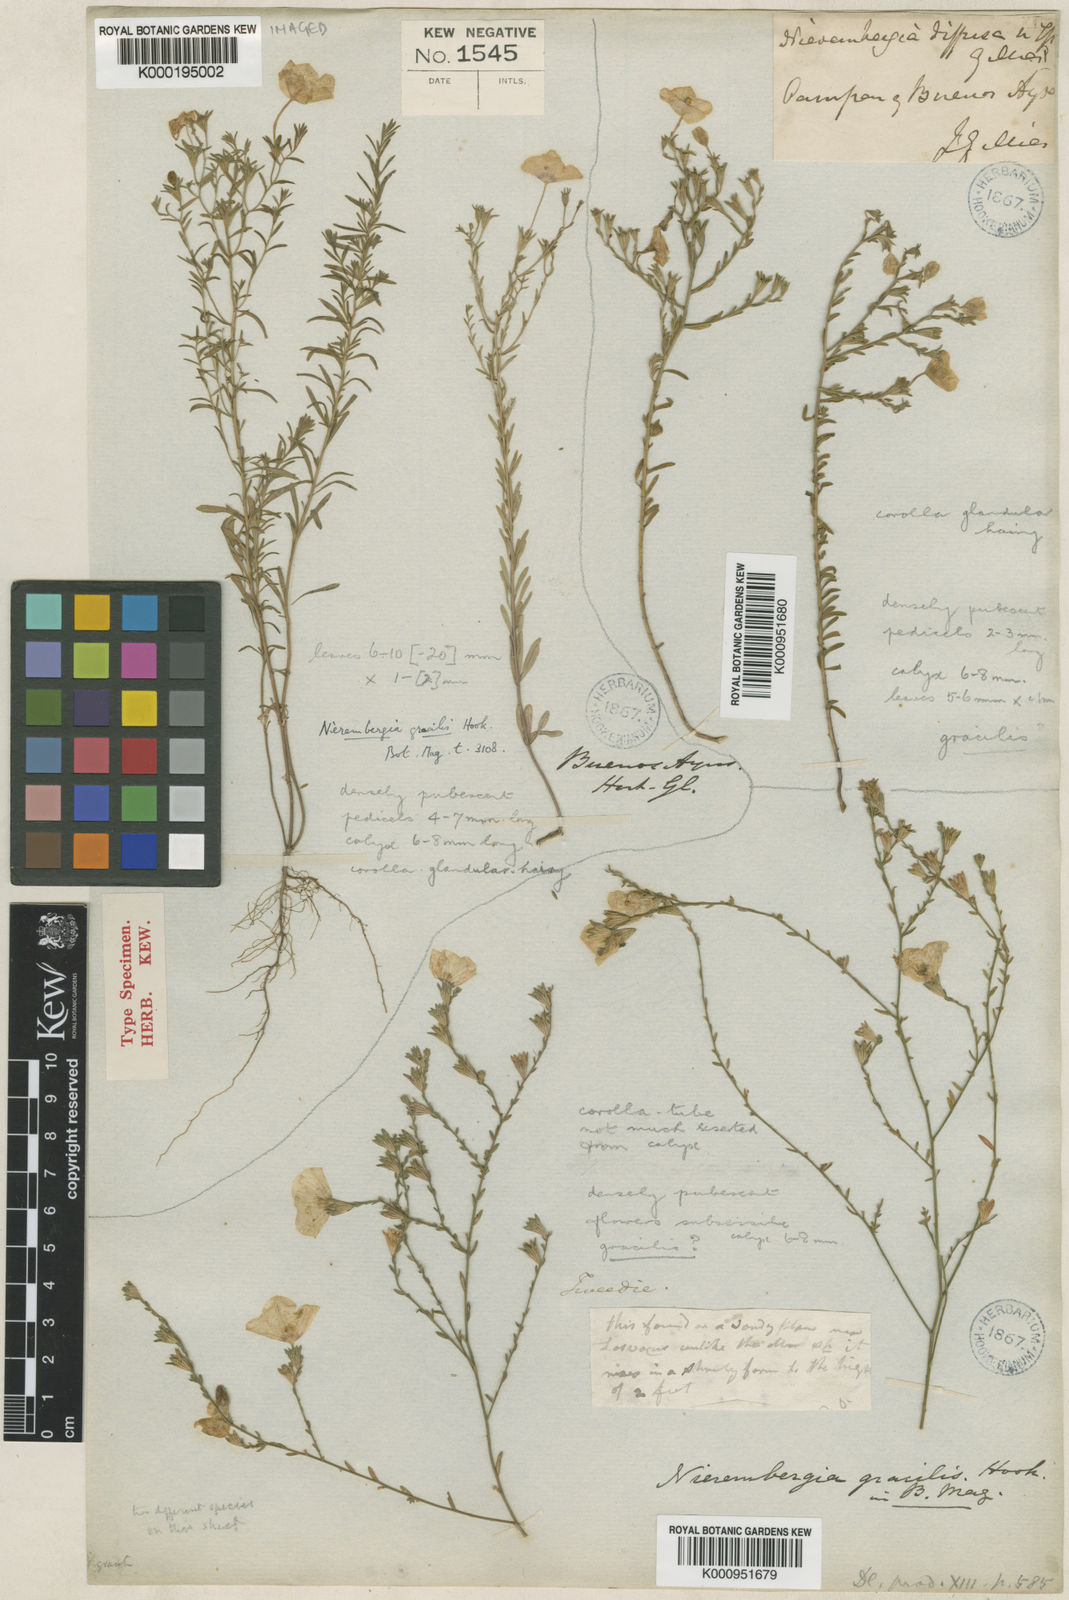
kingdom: Plantae
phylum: Tracheophyta
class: Magnoliopsida
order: Solanales
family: Solanaceae
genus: Nierembergia
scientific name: Nierembergia linariifolia
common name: Dwarf cupflower
